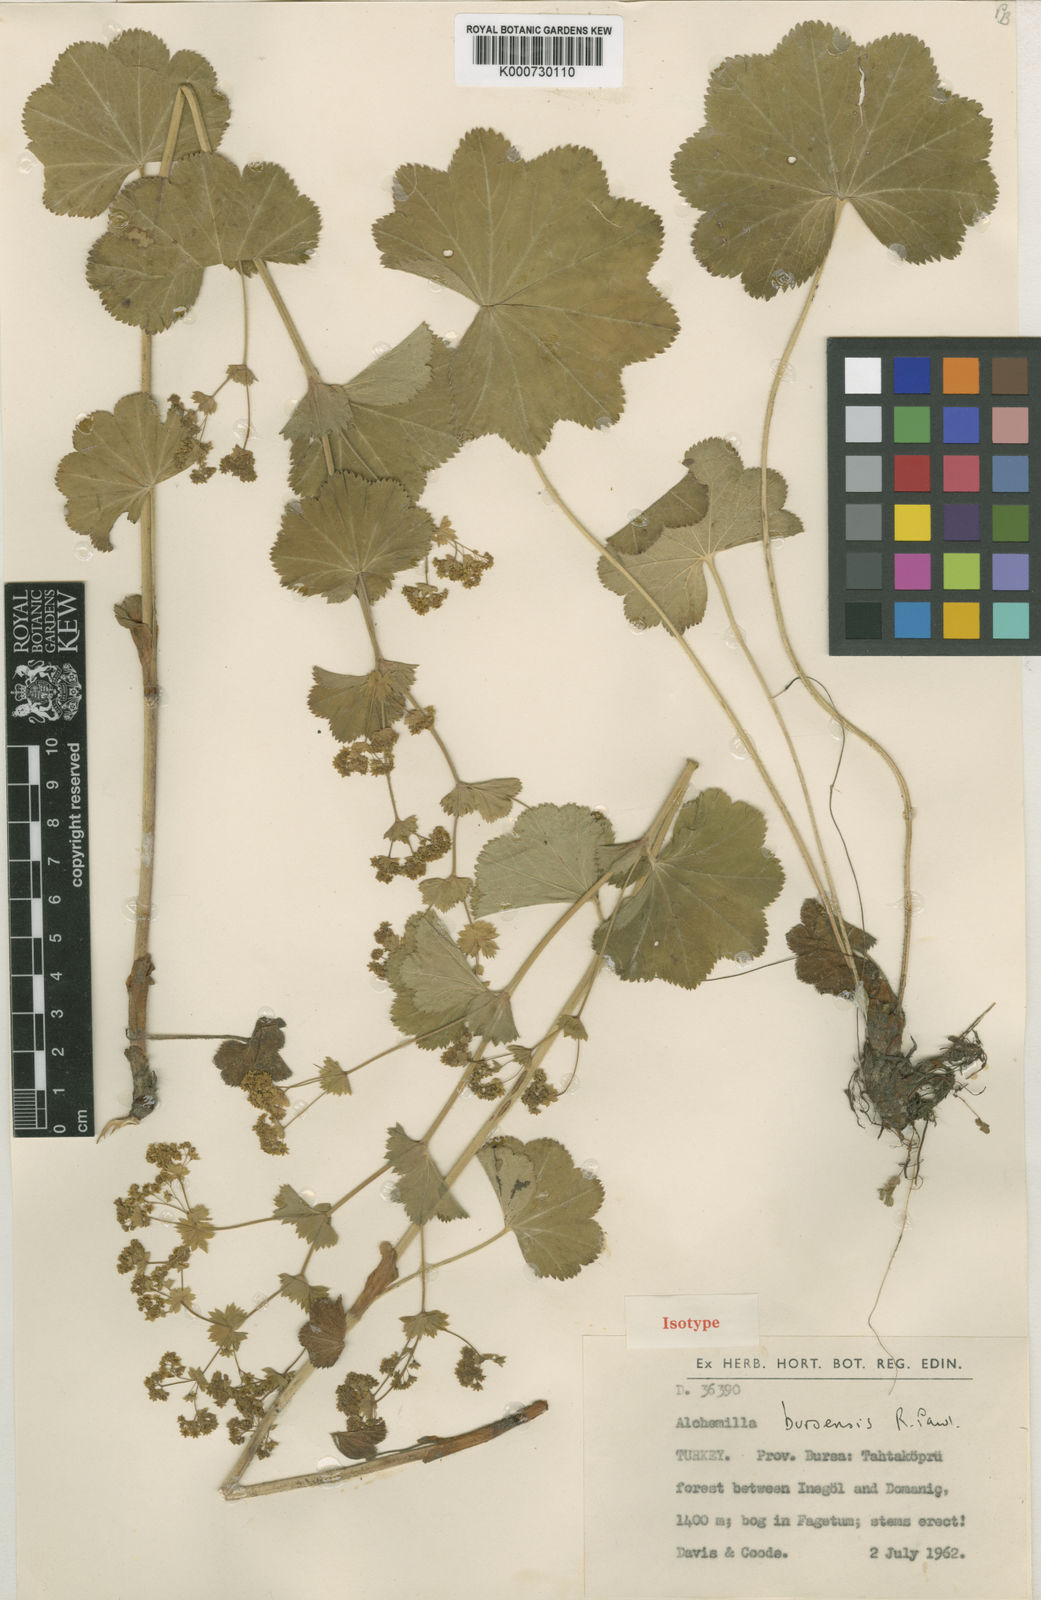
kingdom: Plantae
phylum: Tracheophyta
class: Magnoliopsida
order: Rosales
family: Rosaceae
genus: Alchemilla
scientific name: Alchemilla bursensis
